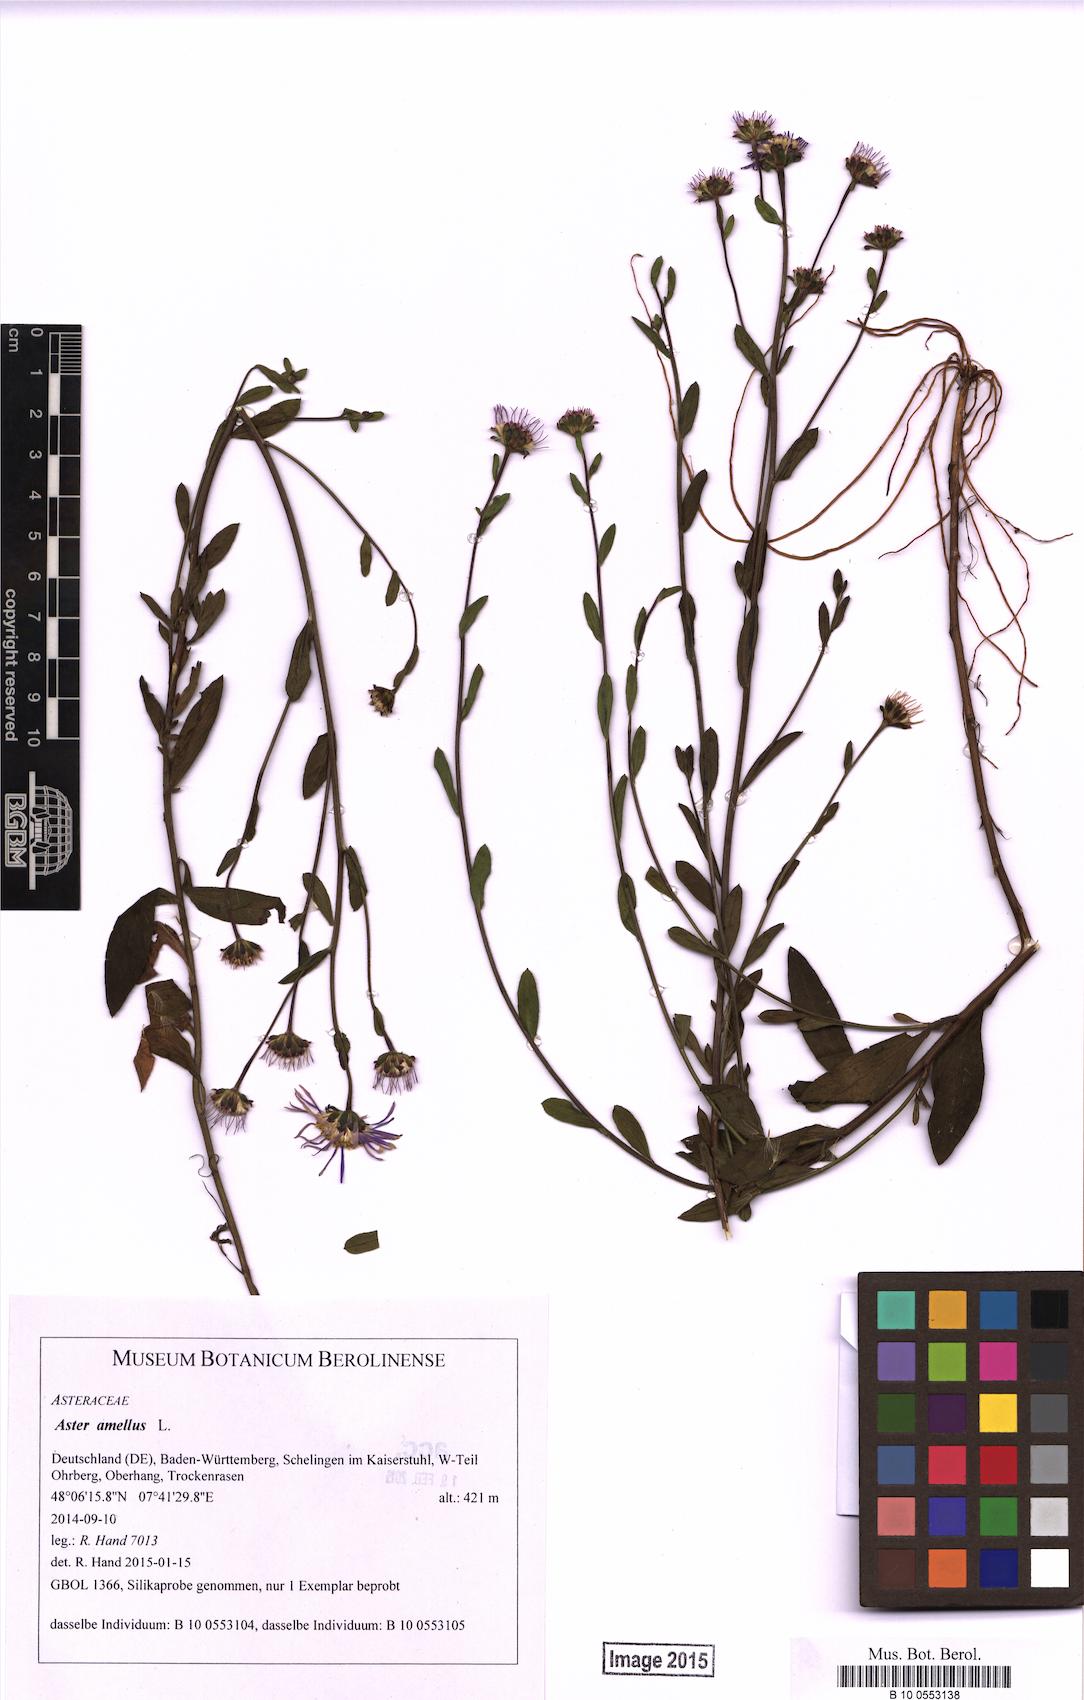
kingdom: Plantae
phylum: Tracheophyta
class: Magnoliopsida
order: Asterales
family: Asteraceae
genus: Aster
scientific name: Aster amellus
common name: European michaelmas daisy
